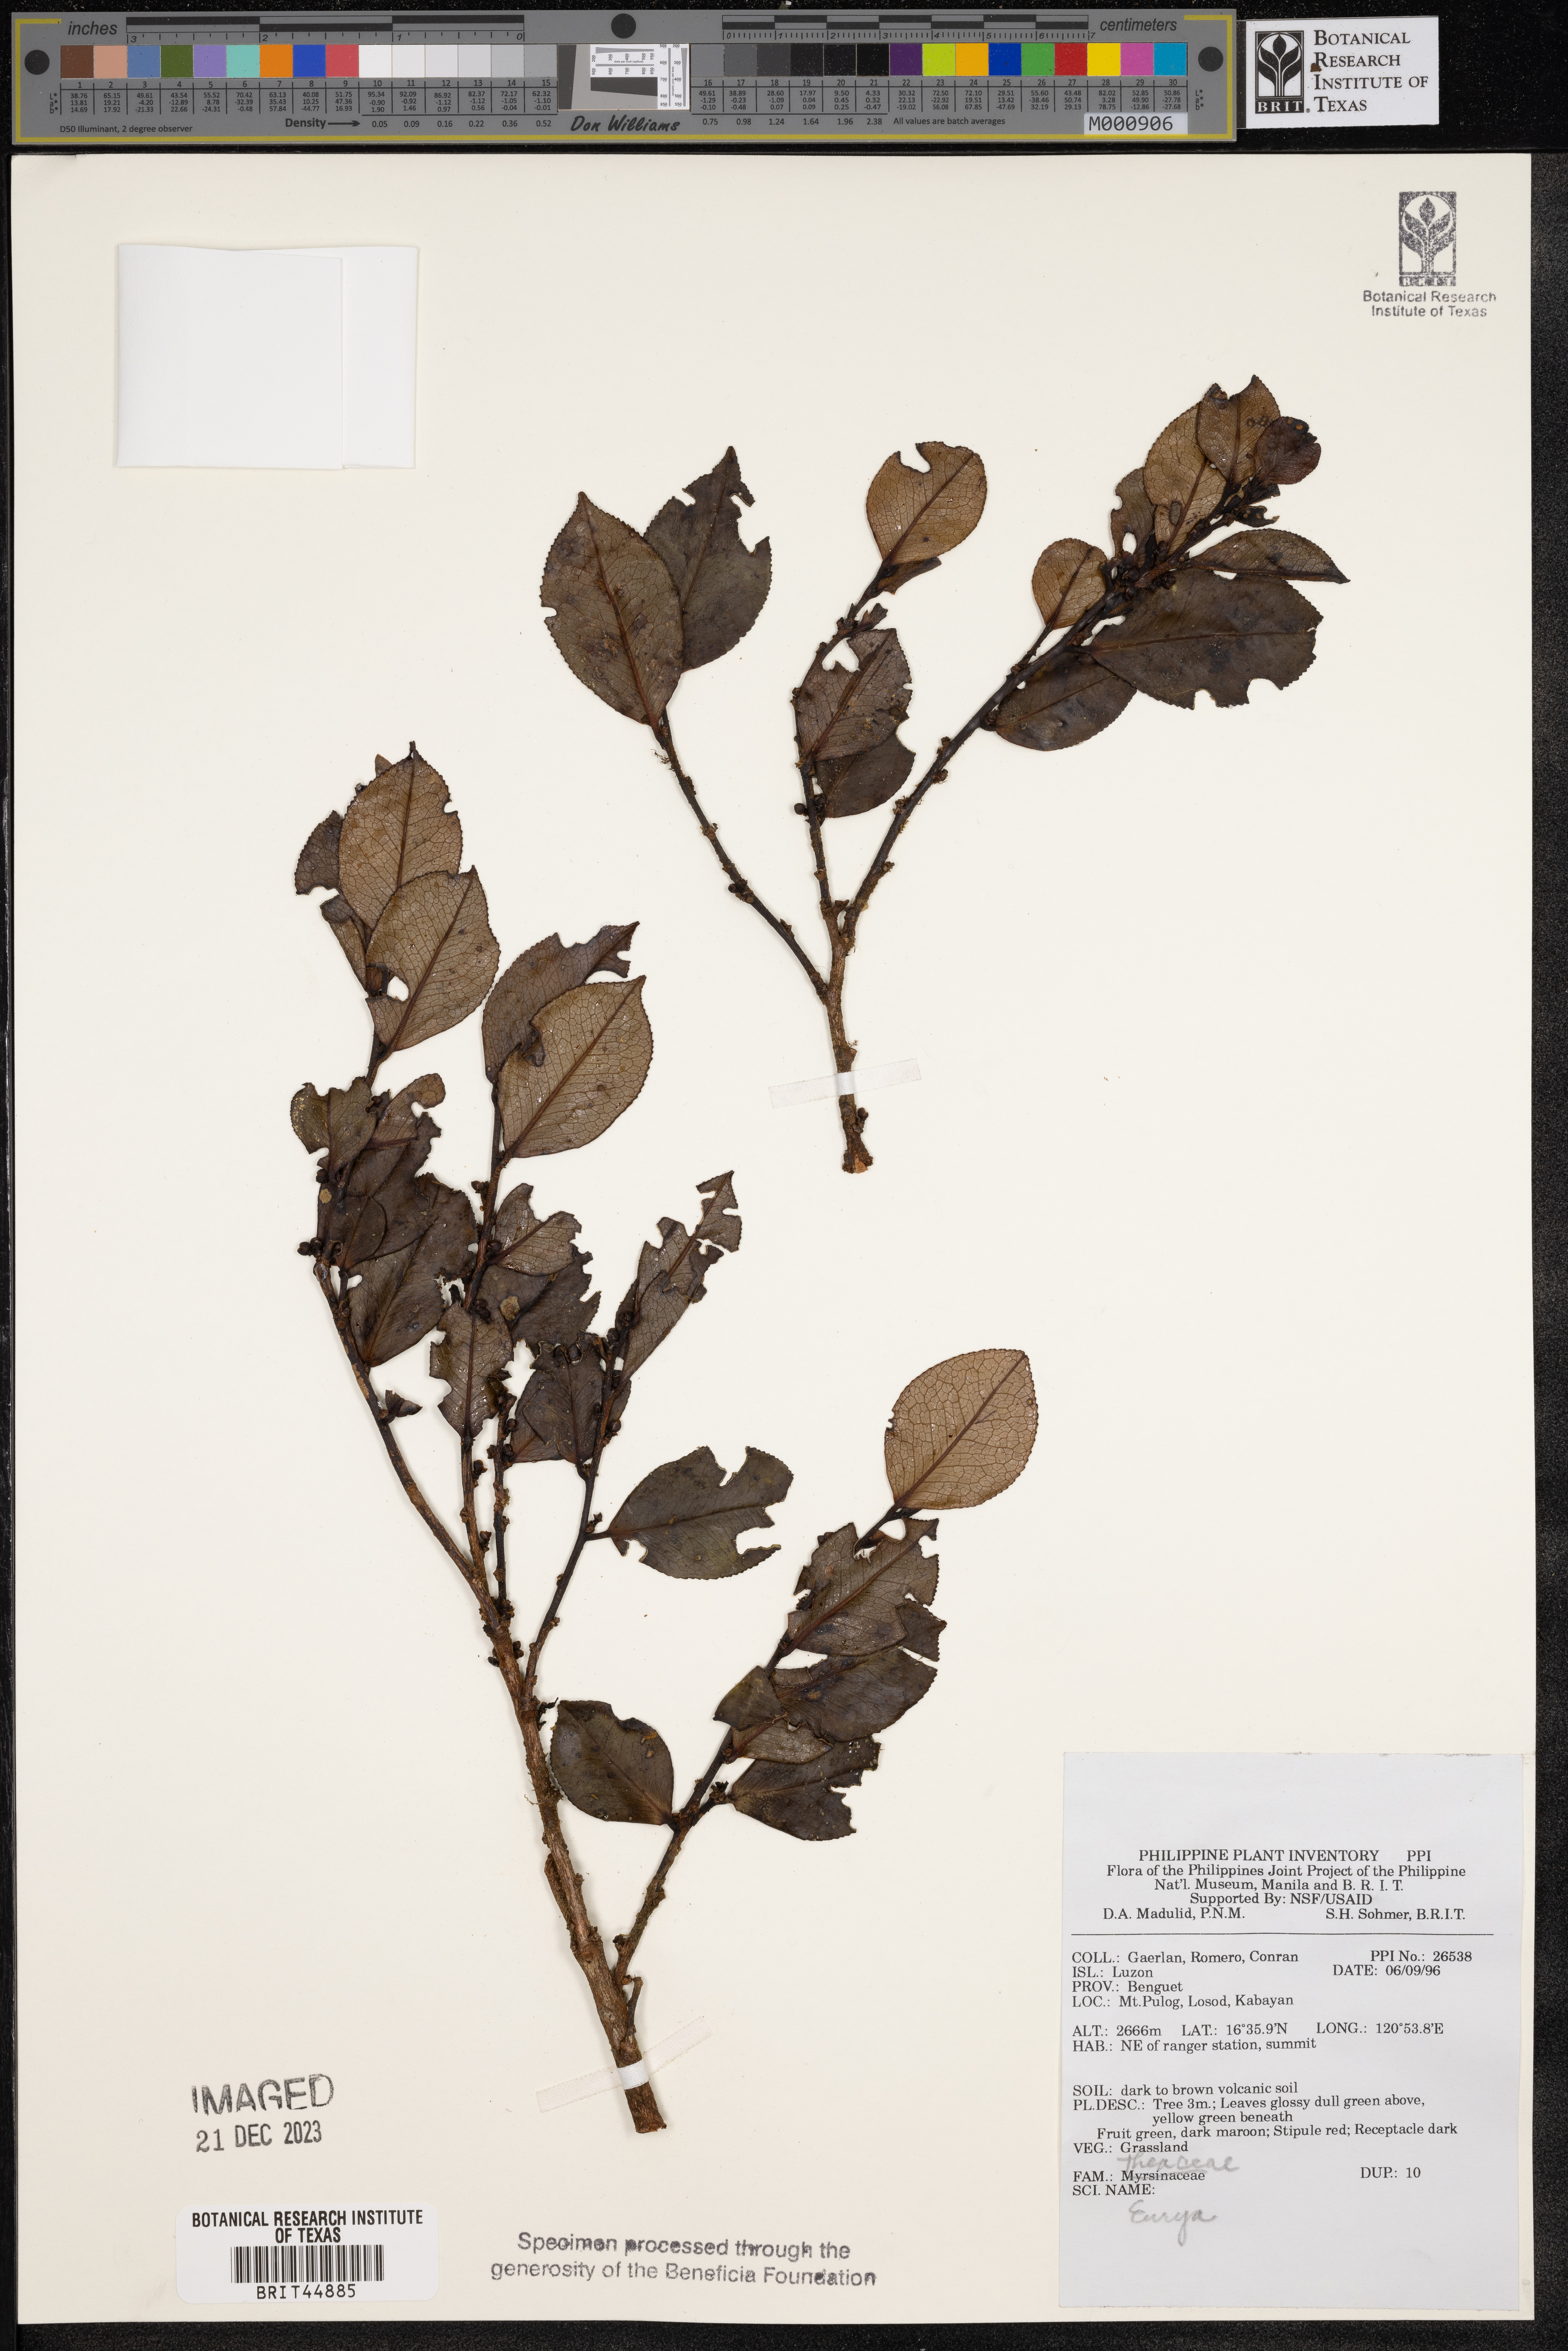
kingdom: Plantae
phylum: Tracheophyta
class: Magnoliopsida
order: Ericales
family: Pentaphylacaceae
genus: Eurya
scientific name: Eurya
